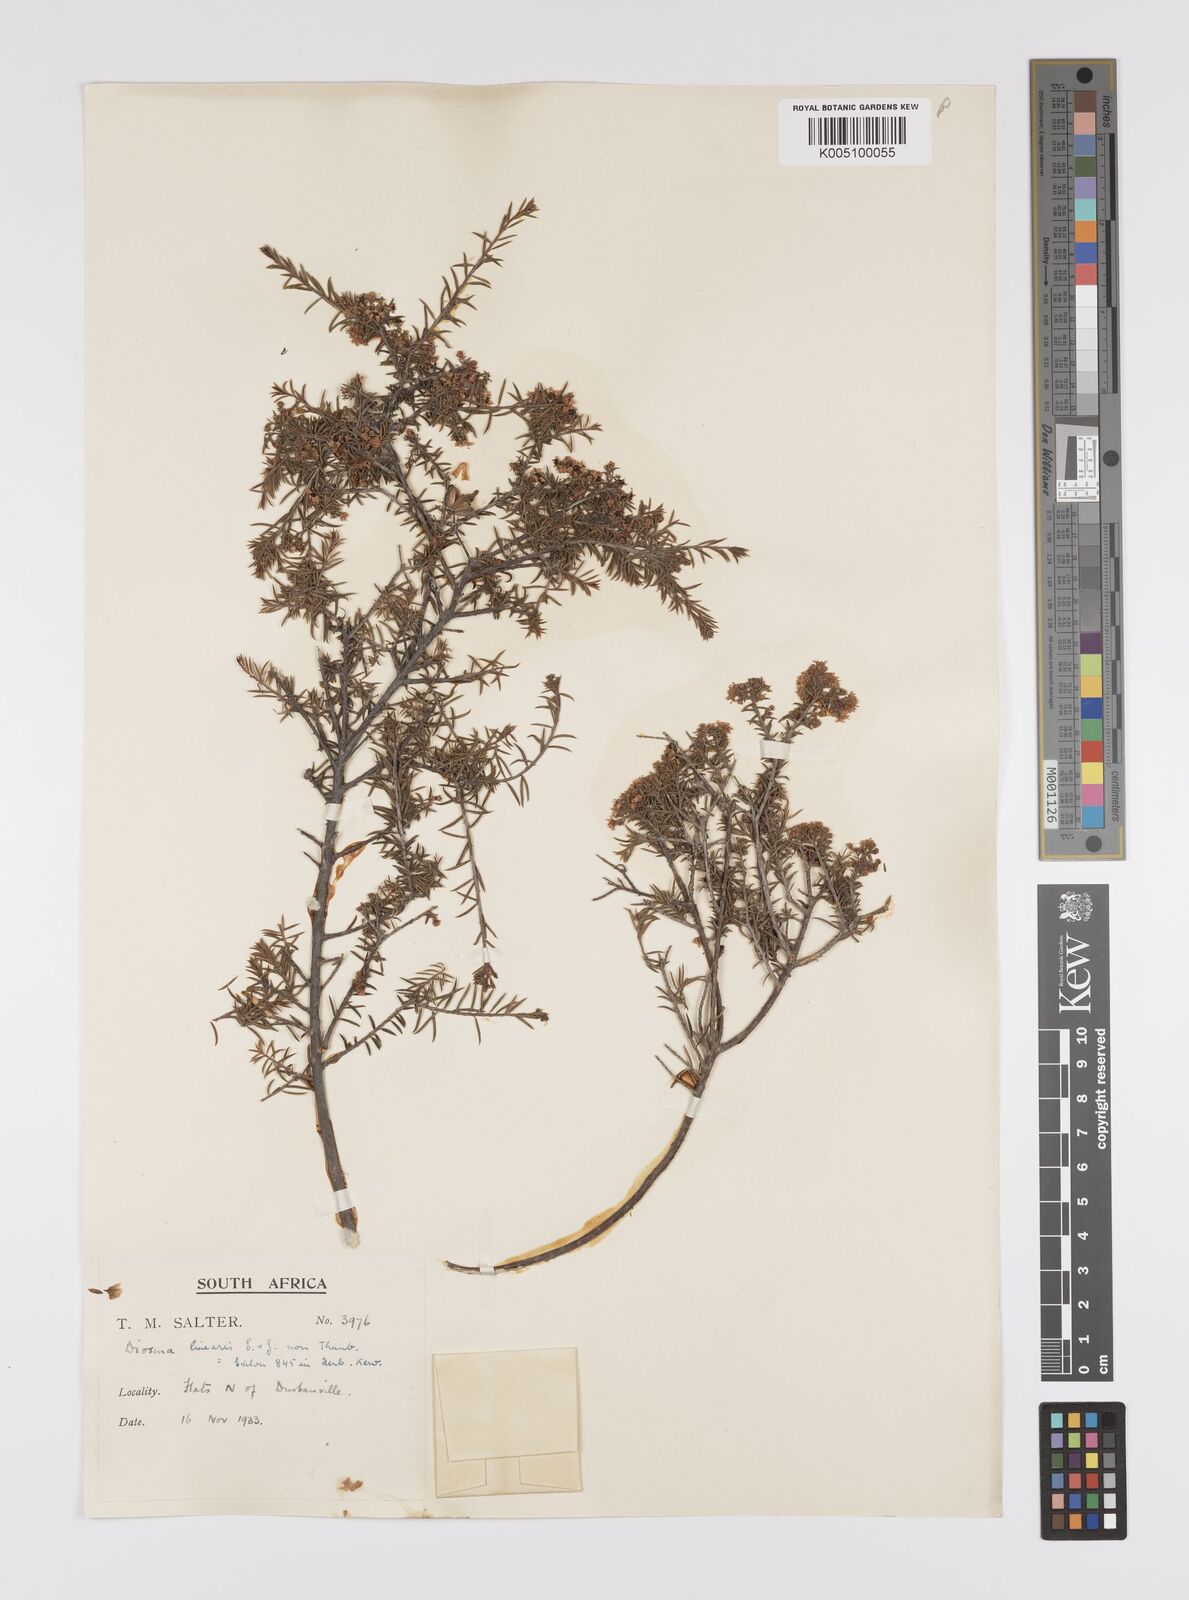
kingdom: Plantae
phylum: Tracheophyta
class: Magnoliopsida
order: Sapindales
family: Rutaceae
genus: Diosma
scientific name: Diosma aspalathoides
